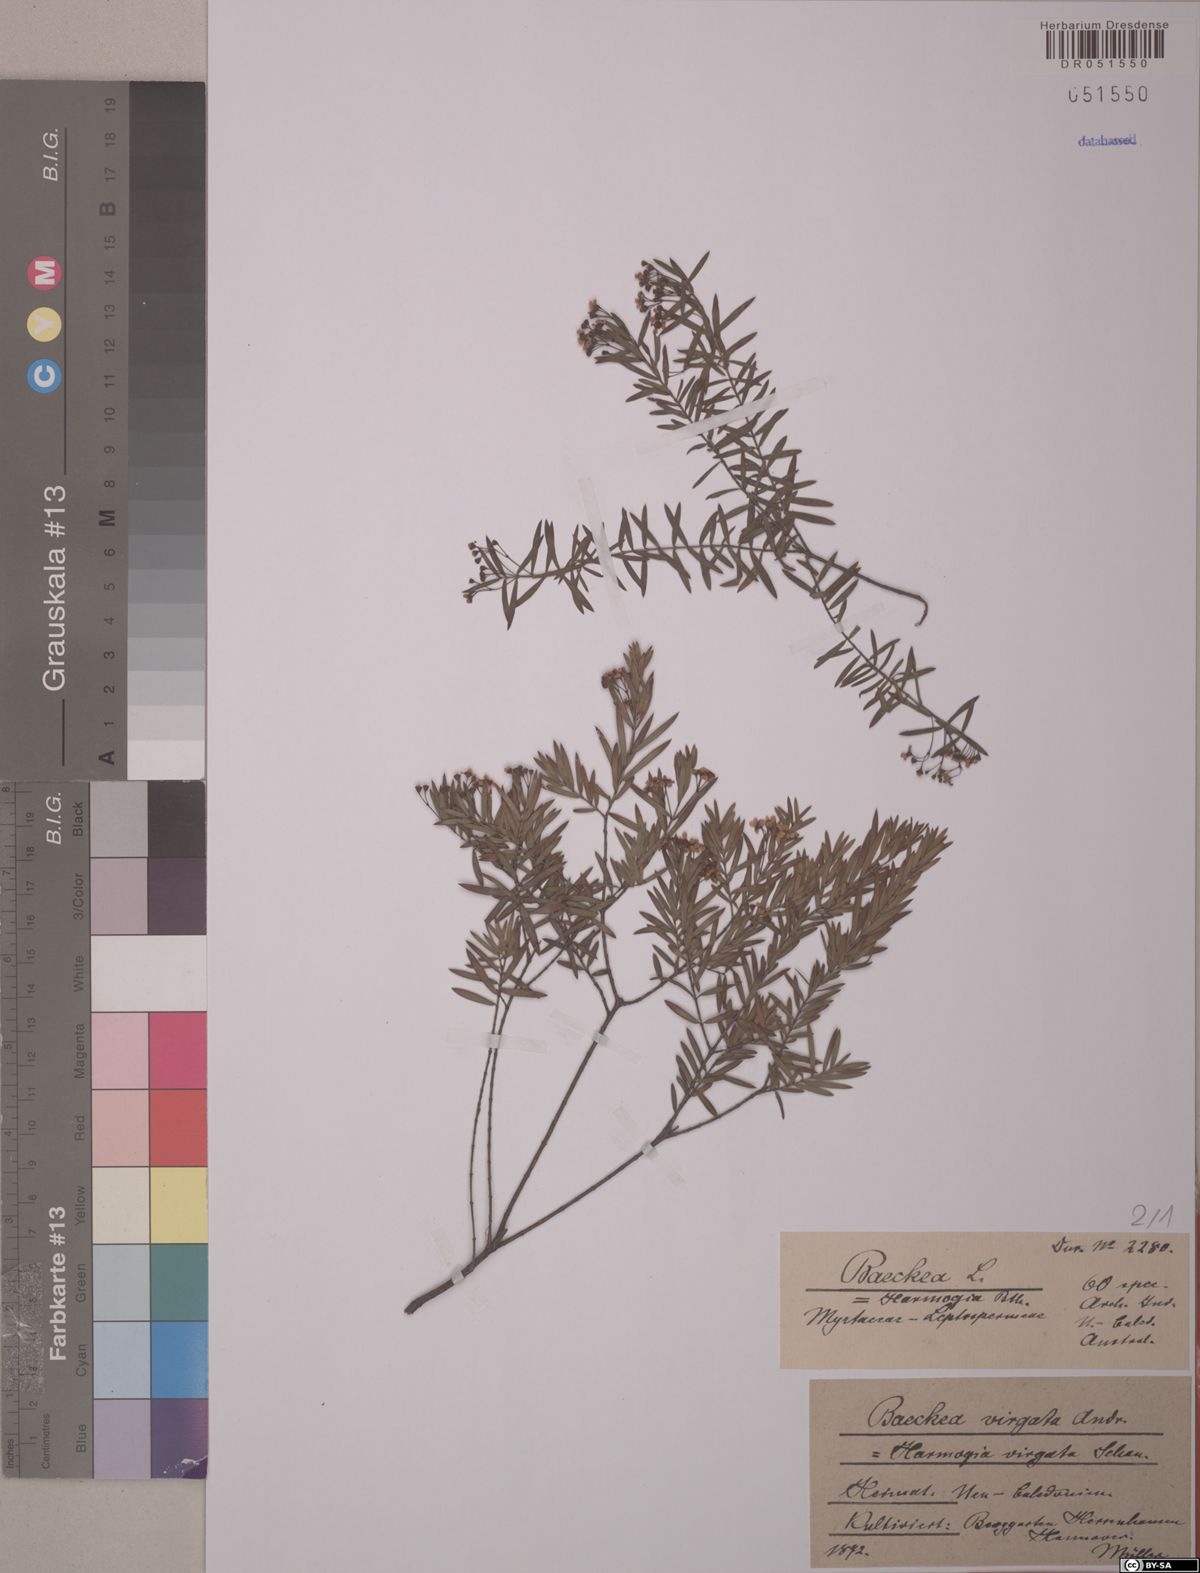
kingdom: Plantae
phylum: Tracheophyta
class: Magnoliopsida
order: Myrtales
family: Myrtaceae
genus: Sannantha
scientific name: Sannantha virgata
